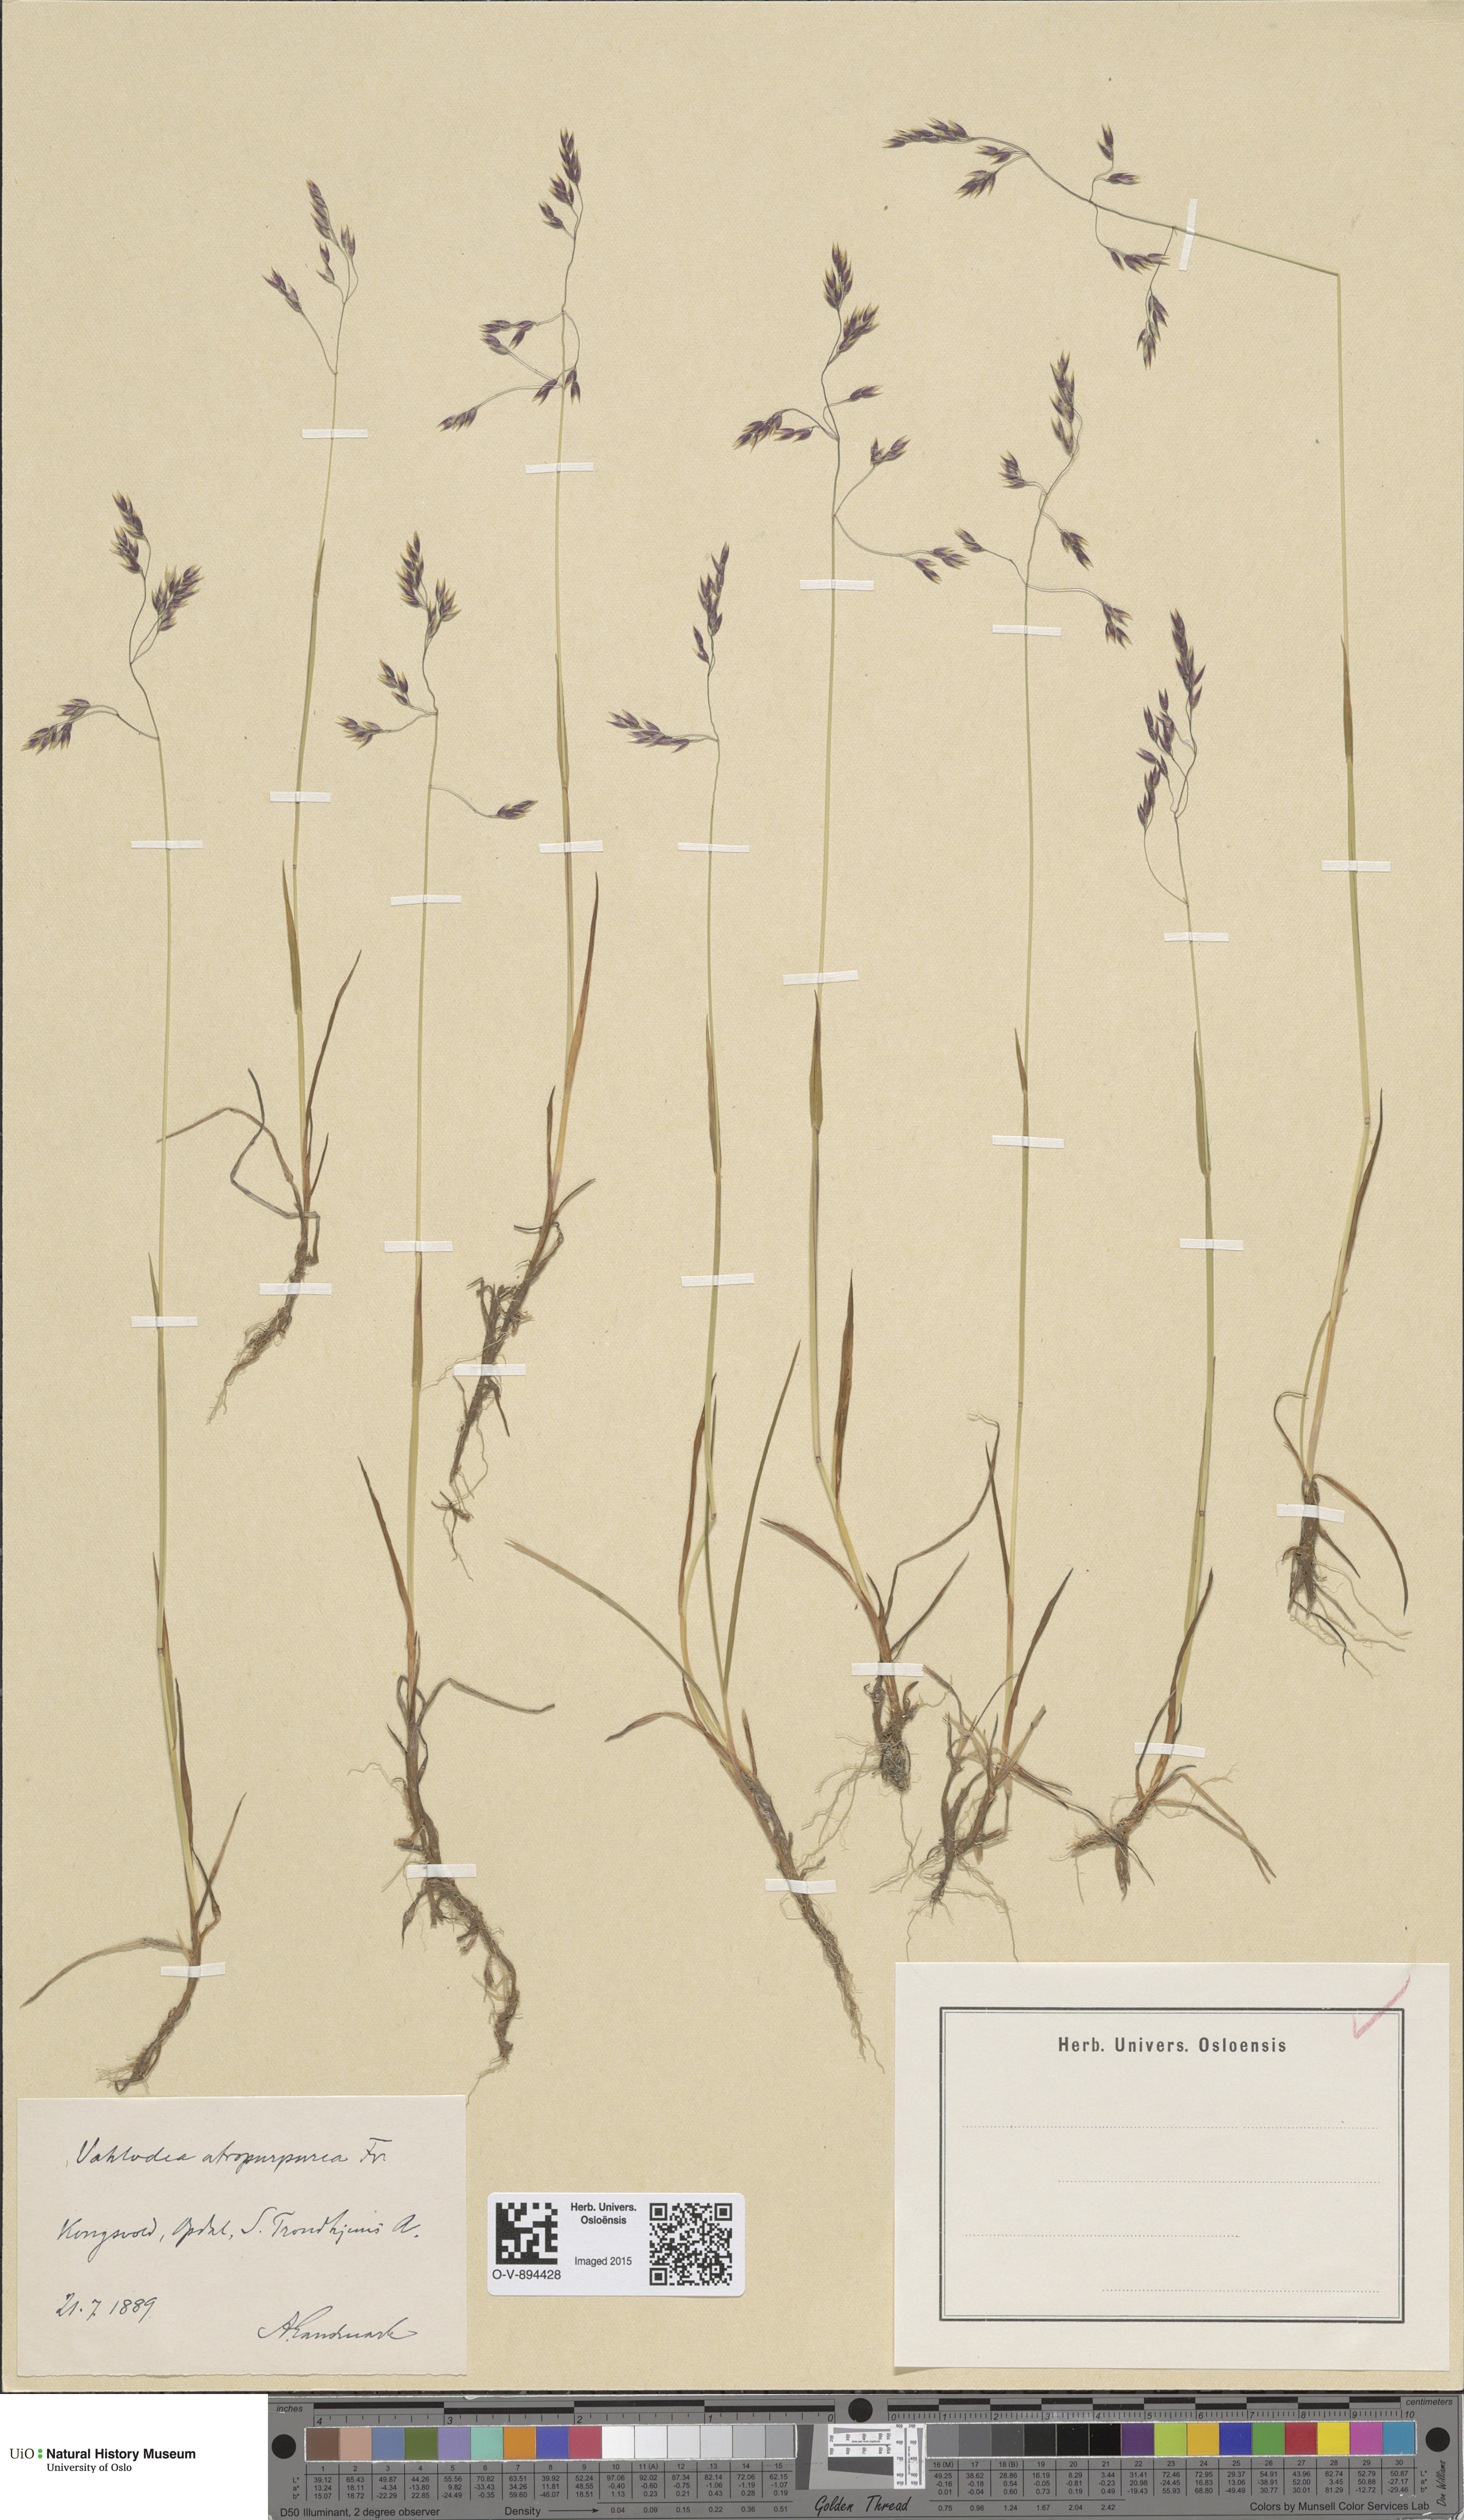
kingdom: Plantae
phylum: Tracheophyta
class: Liliopsida
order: Poales
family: Poaceae
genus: Vahlodea
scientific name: Vahlodea atropurpurea
